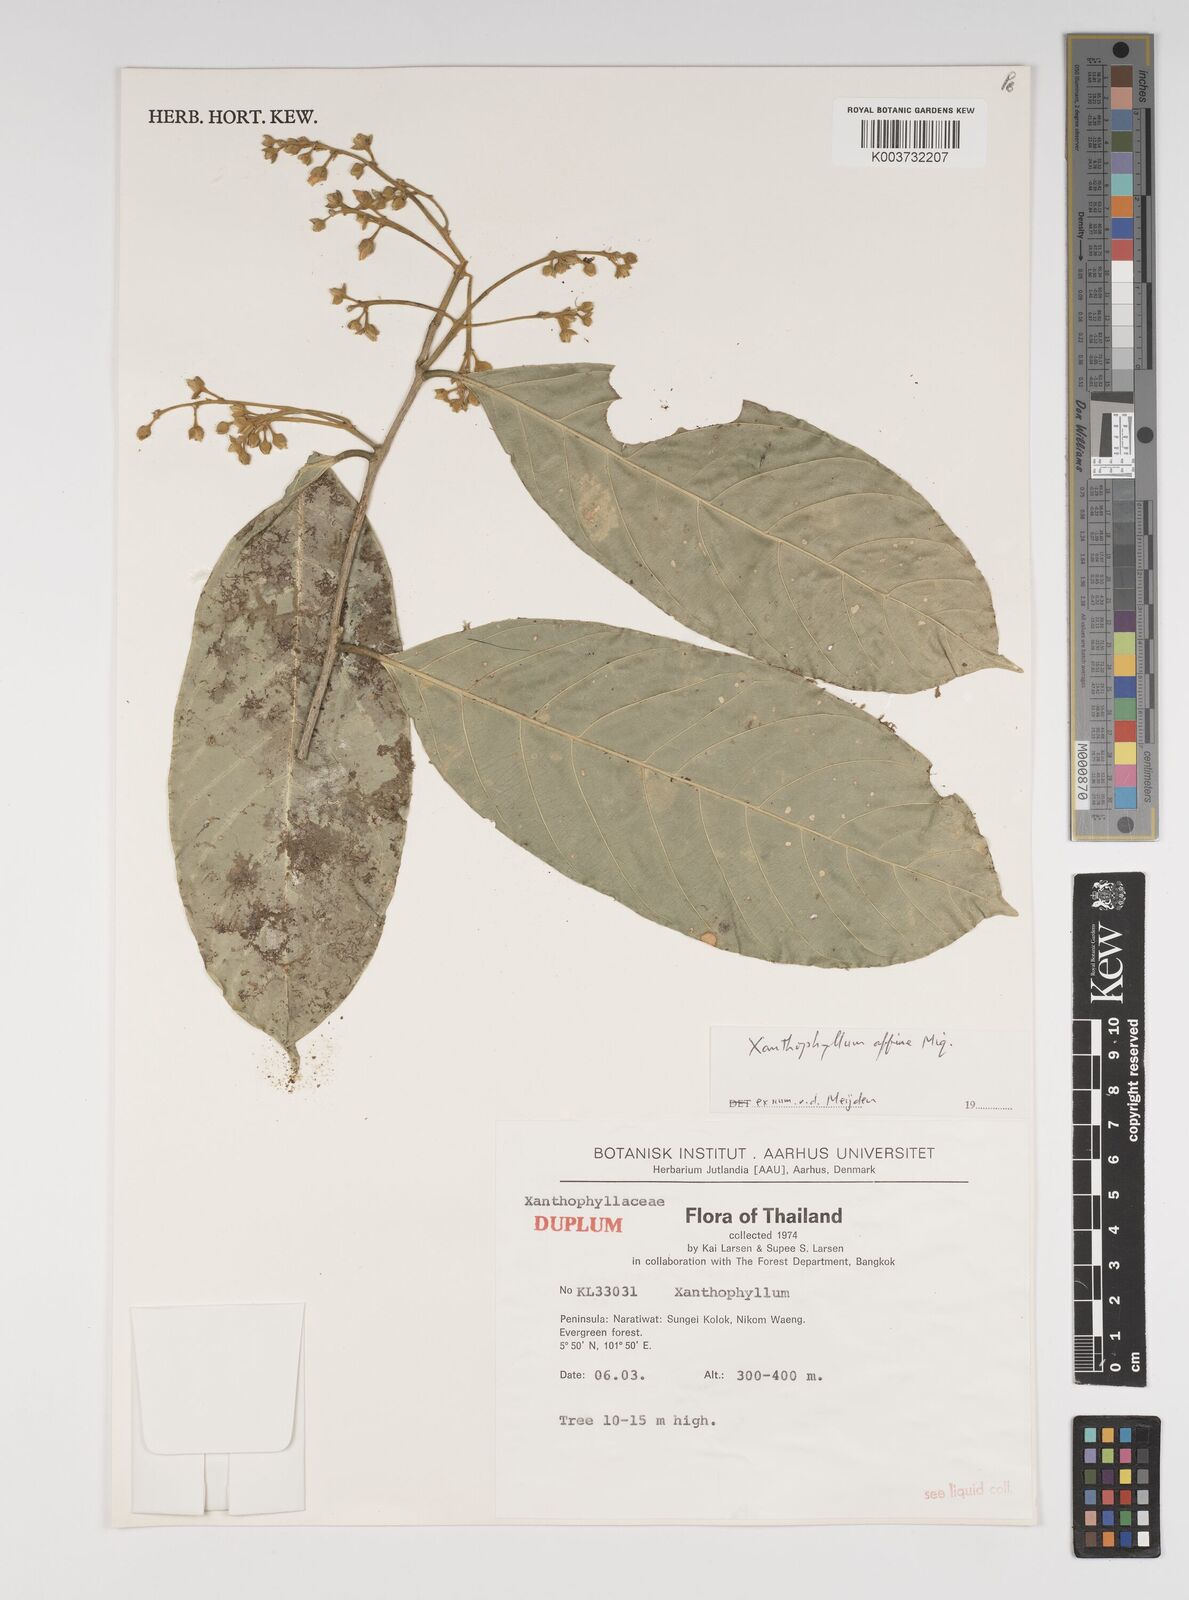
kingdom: Plantae
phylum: Tracheophyta
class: Magnoliopsida
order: Fabales
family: Polygalaceae
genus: Xanthophyllum
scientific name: Xanthophyllum flavescens
